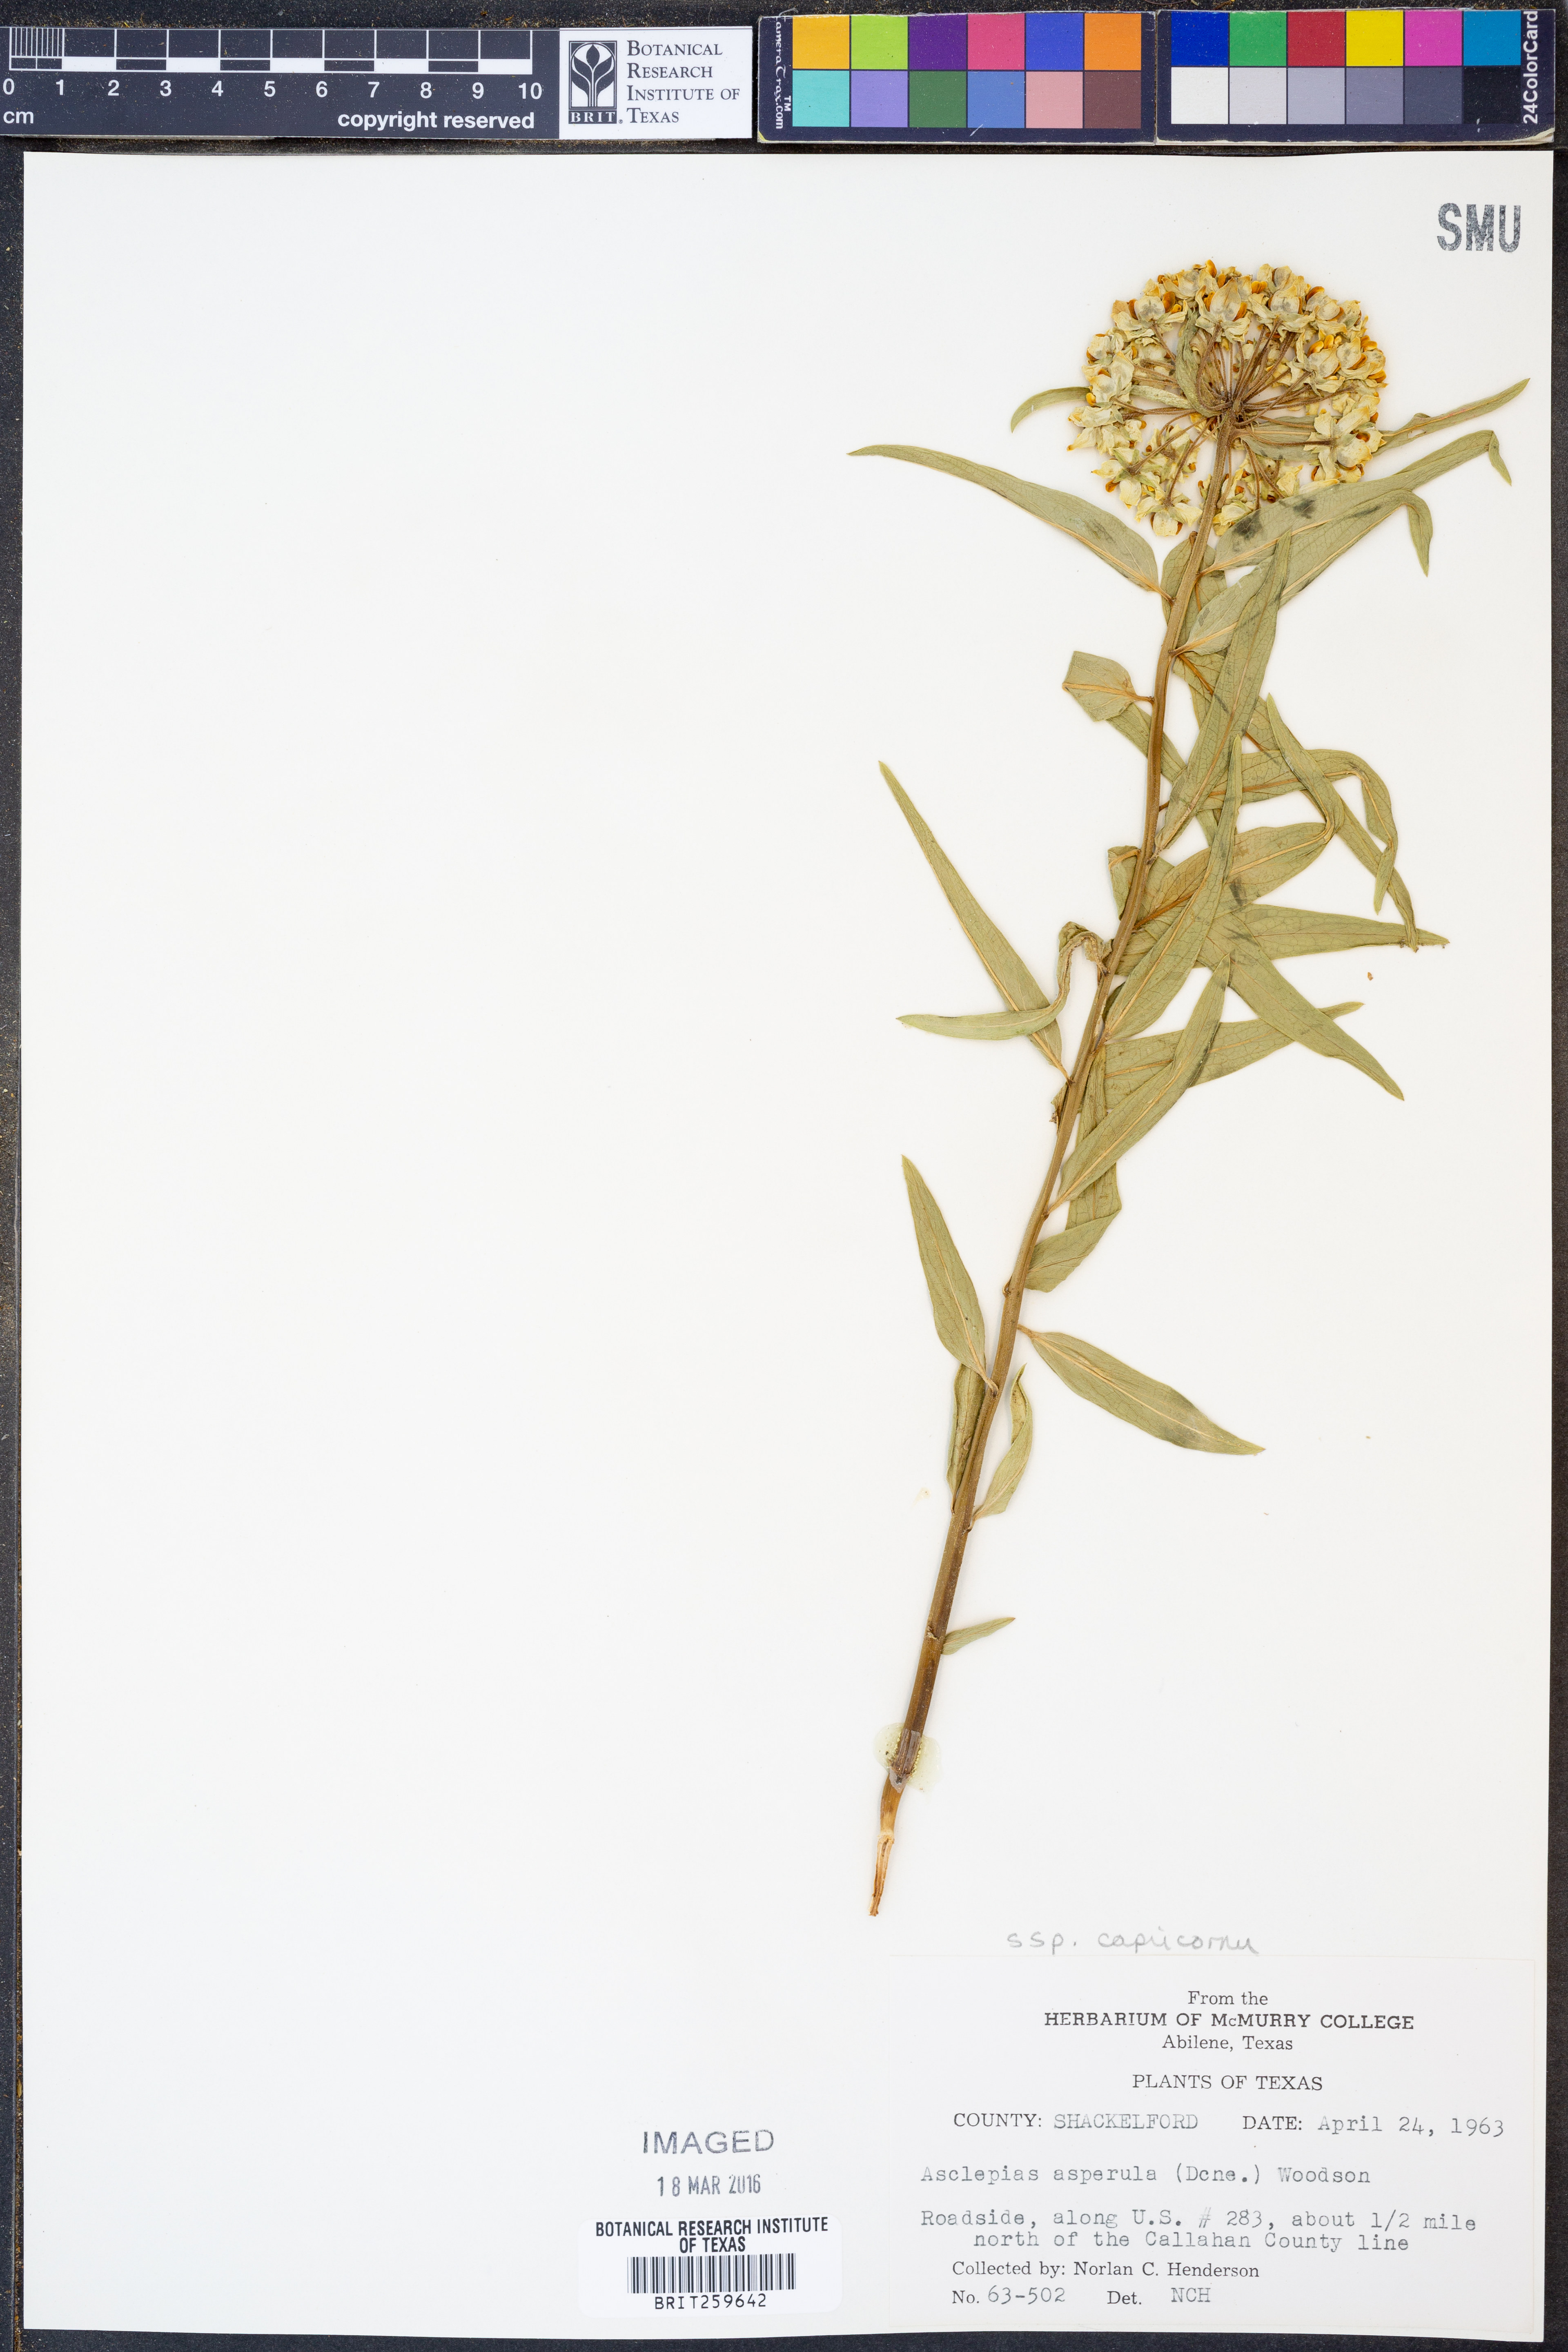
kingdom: Plantae
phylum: Tracheophyta
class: Magnoliopsida
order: Gentianales
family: Apocynaceae
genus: Asclepias
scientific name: Asclepias asperula
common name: Antelope horns
